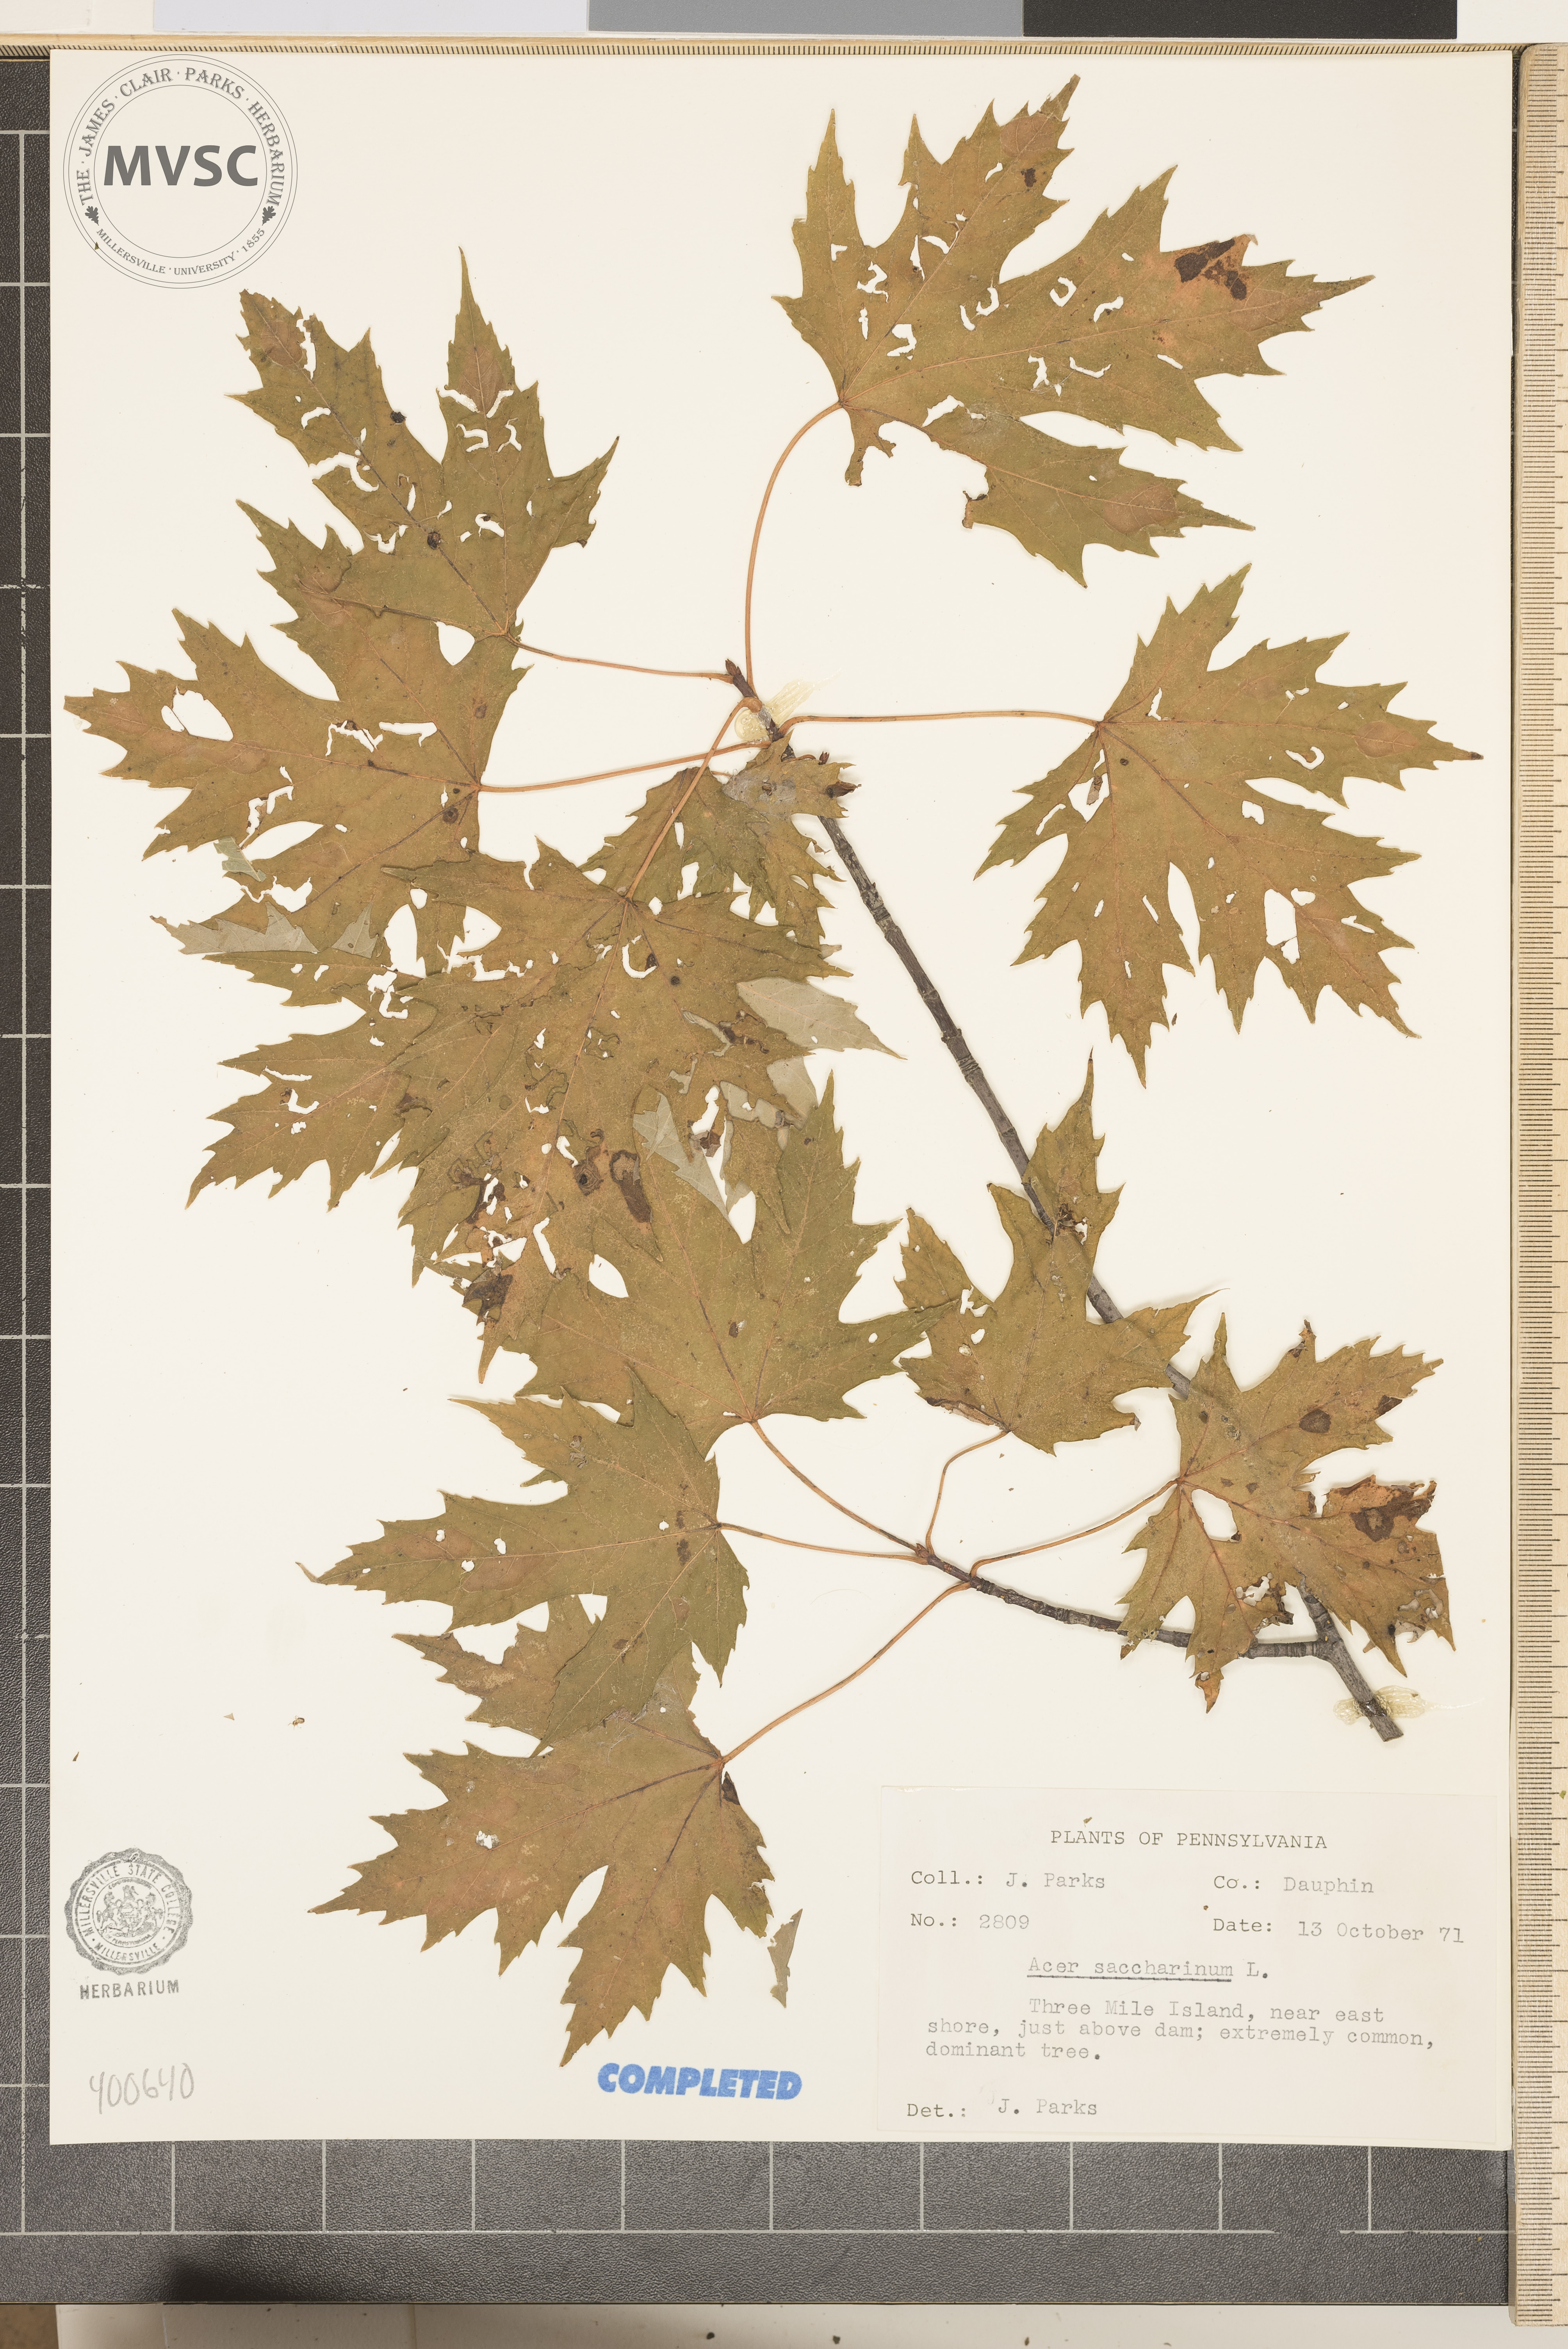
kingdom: Plantae
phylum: Tracheophyta
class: Magnoliopsida
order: Sapindales
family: Sapindaceae
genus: Acer
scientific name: Acer saccharinum
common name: Silver maple
